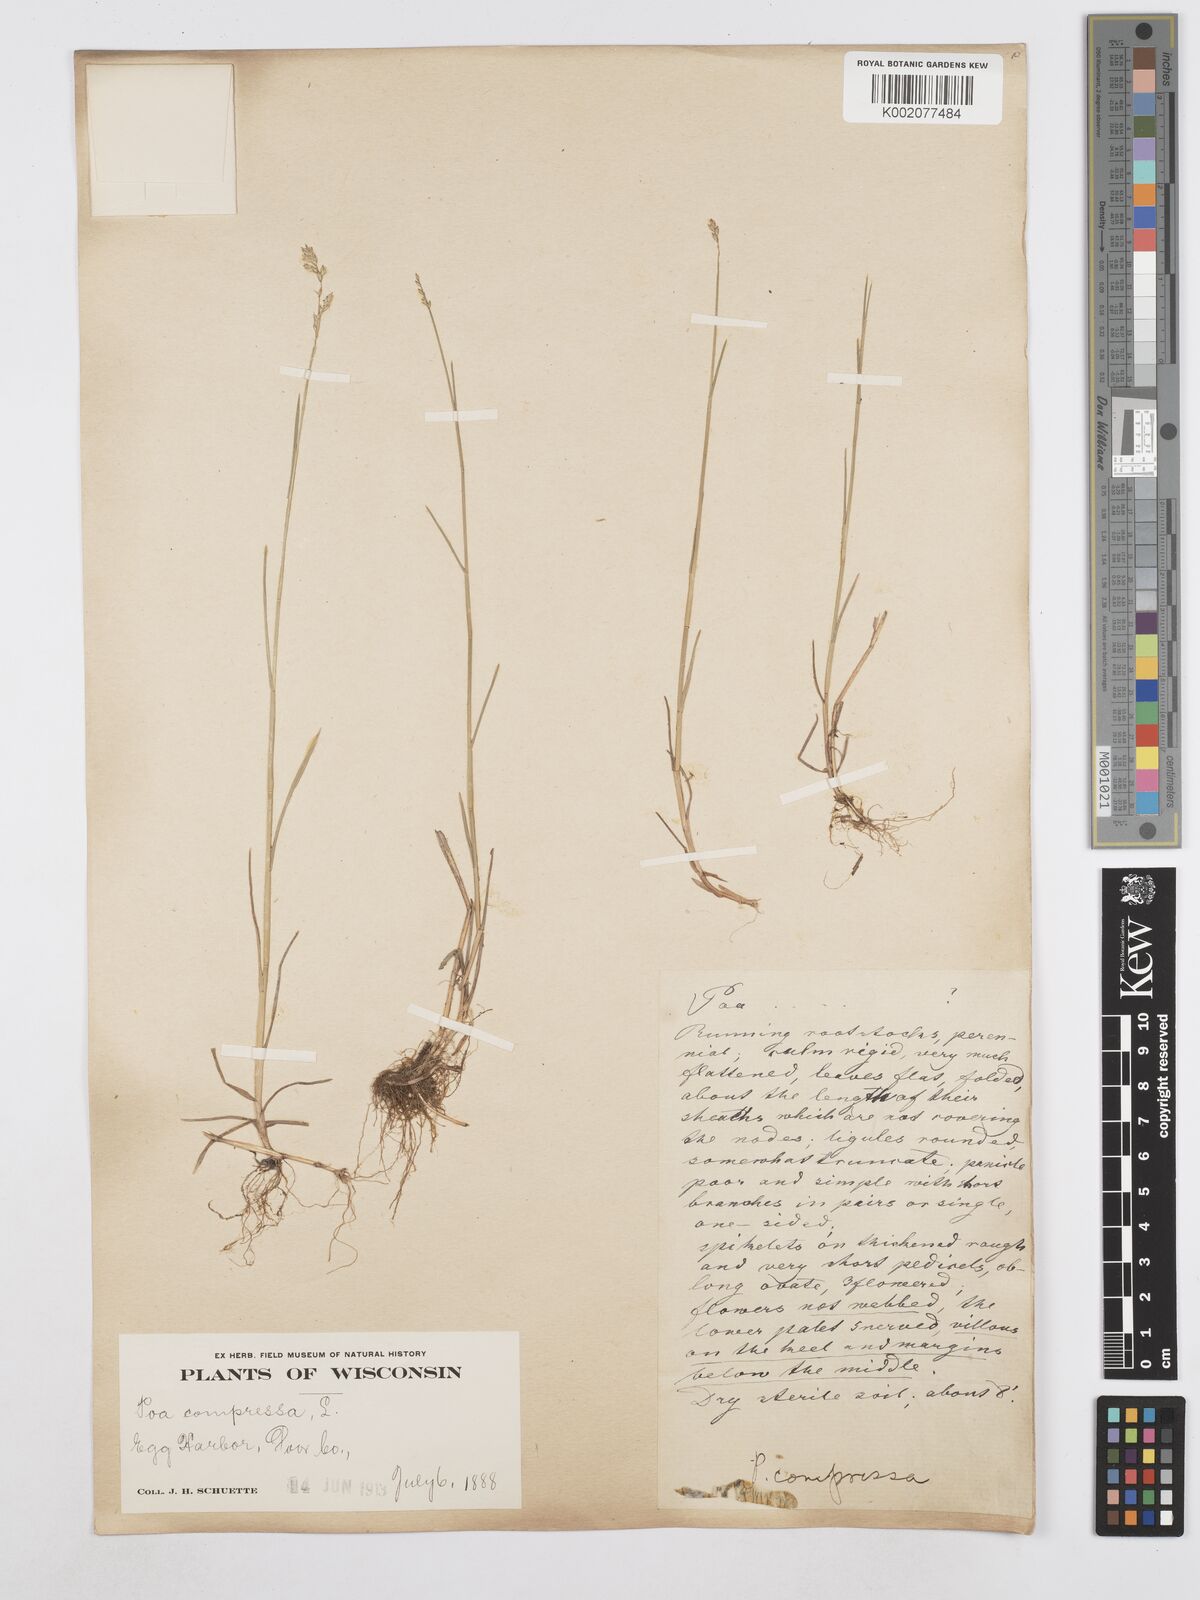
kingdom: Plantae
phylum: Tracheophyta
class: Liliopsida
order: Poales
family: Poaceae
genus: Poa
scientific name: Poa compressa
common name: Canada bluegrass
